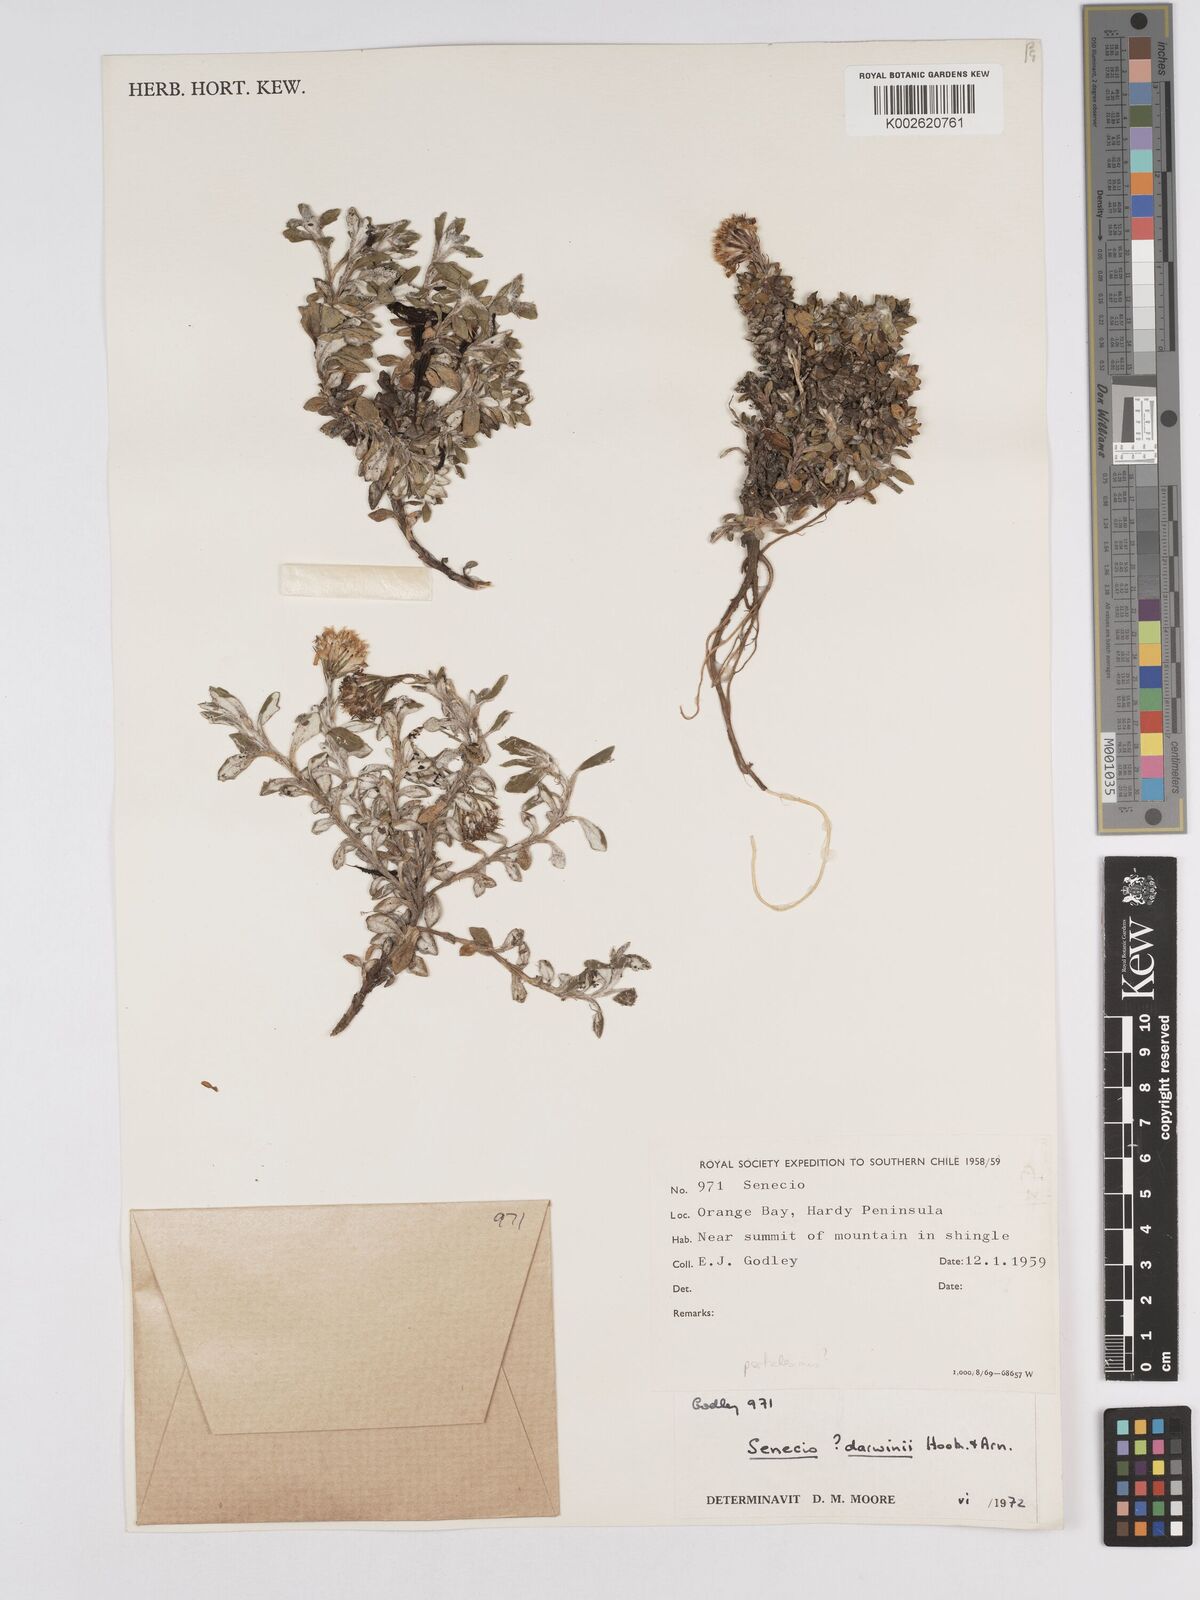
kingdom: Plantae
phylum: Tracheophyta
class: Magnoliopsida
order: Asterales
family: Asteraceae
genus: Senecio
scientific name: Senecio darwinii
